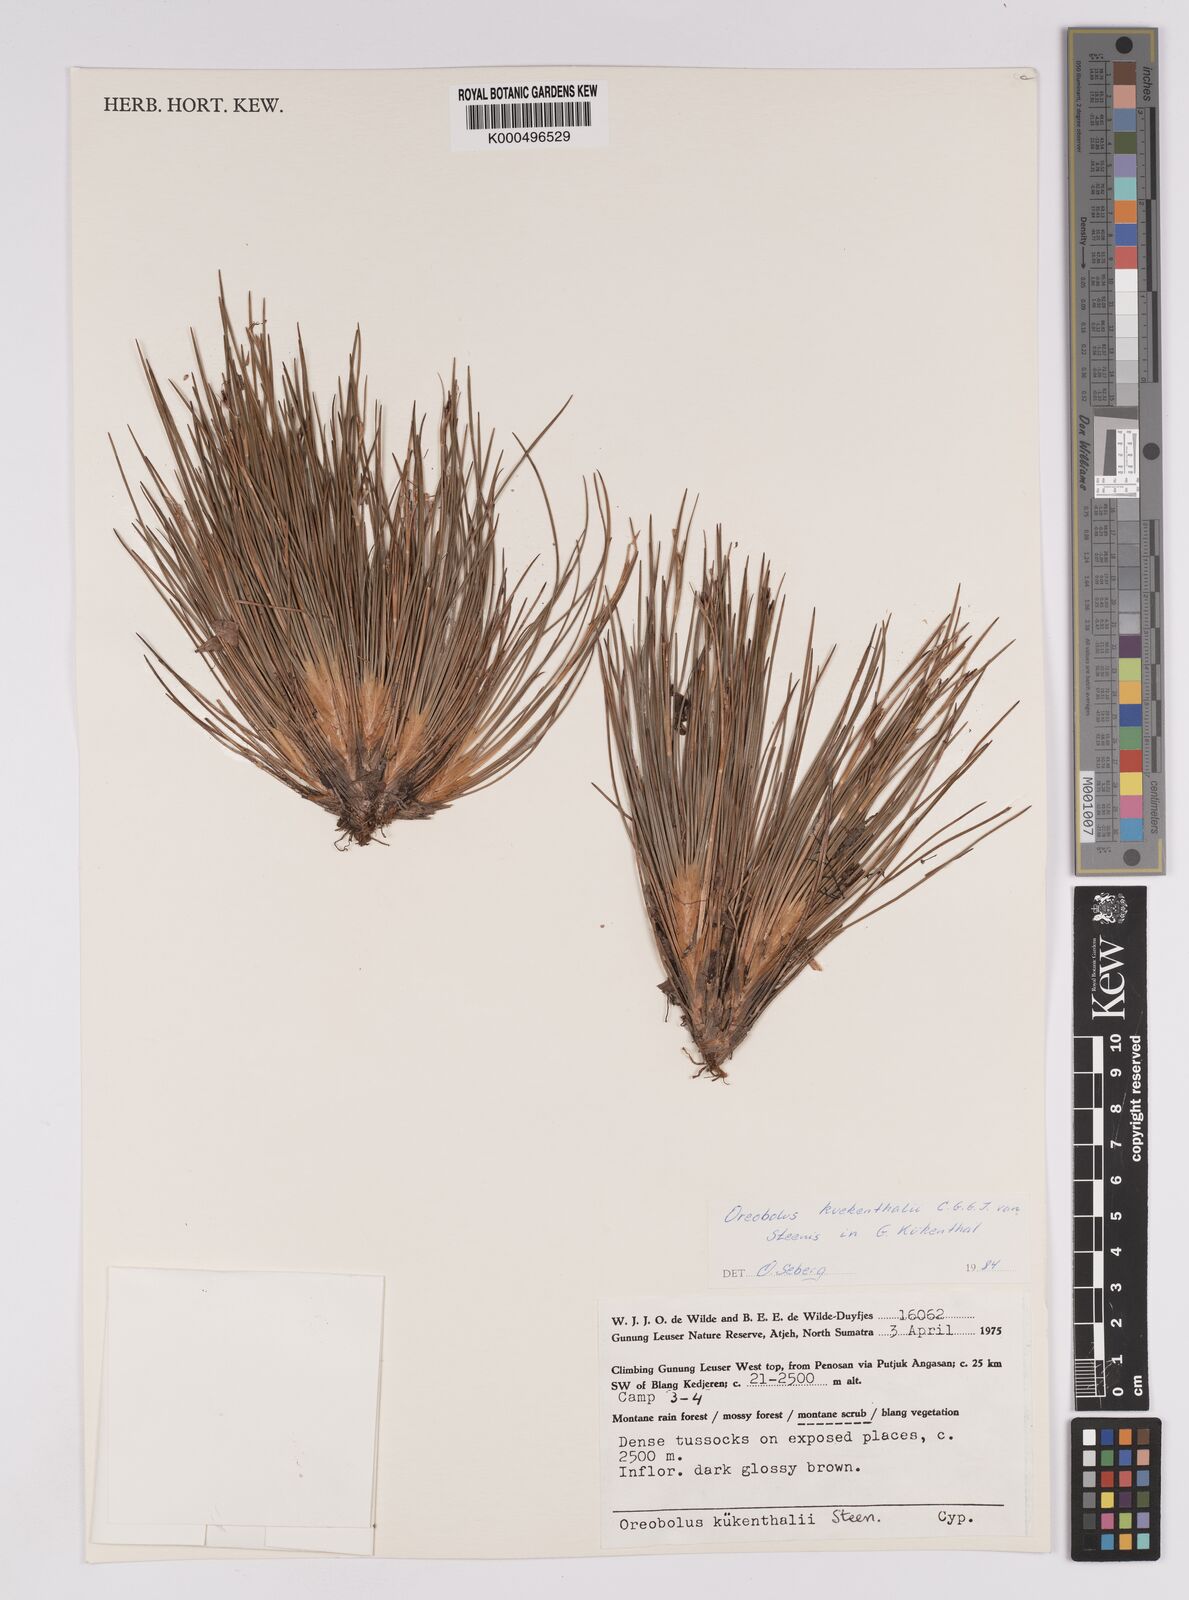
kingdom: Plantae
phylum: Tracheophyta
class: Liliopsida
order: Poales
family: Cyperaceae
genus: Oreobolus
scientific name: Oreobolus
